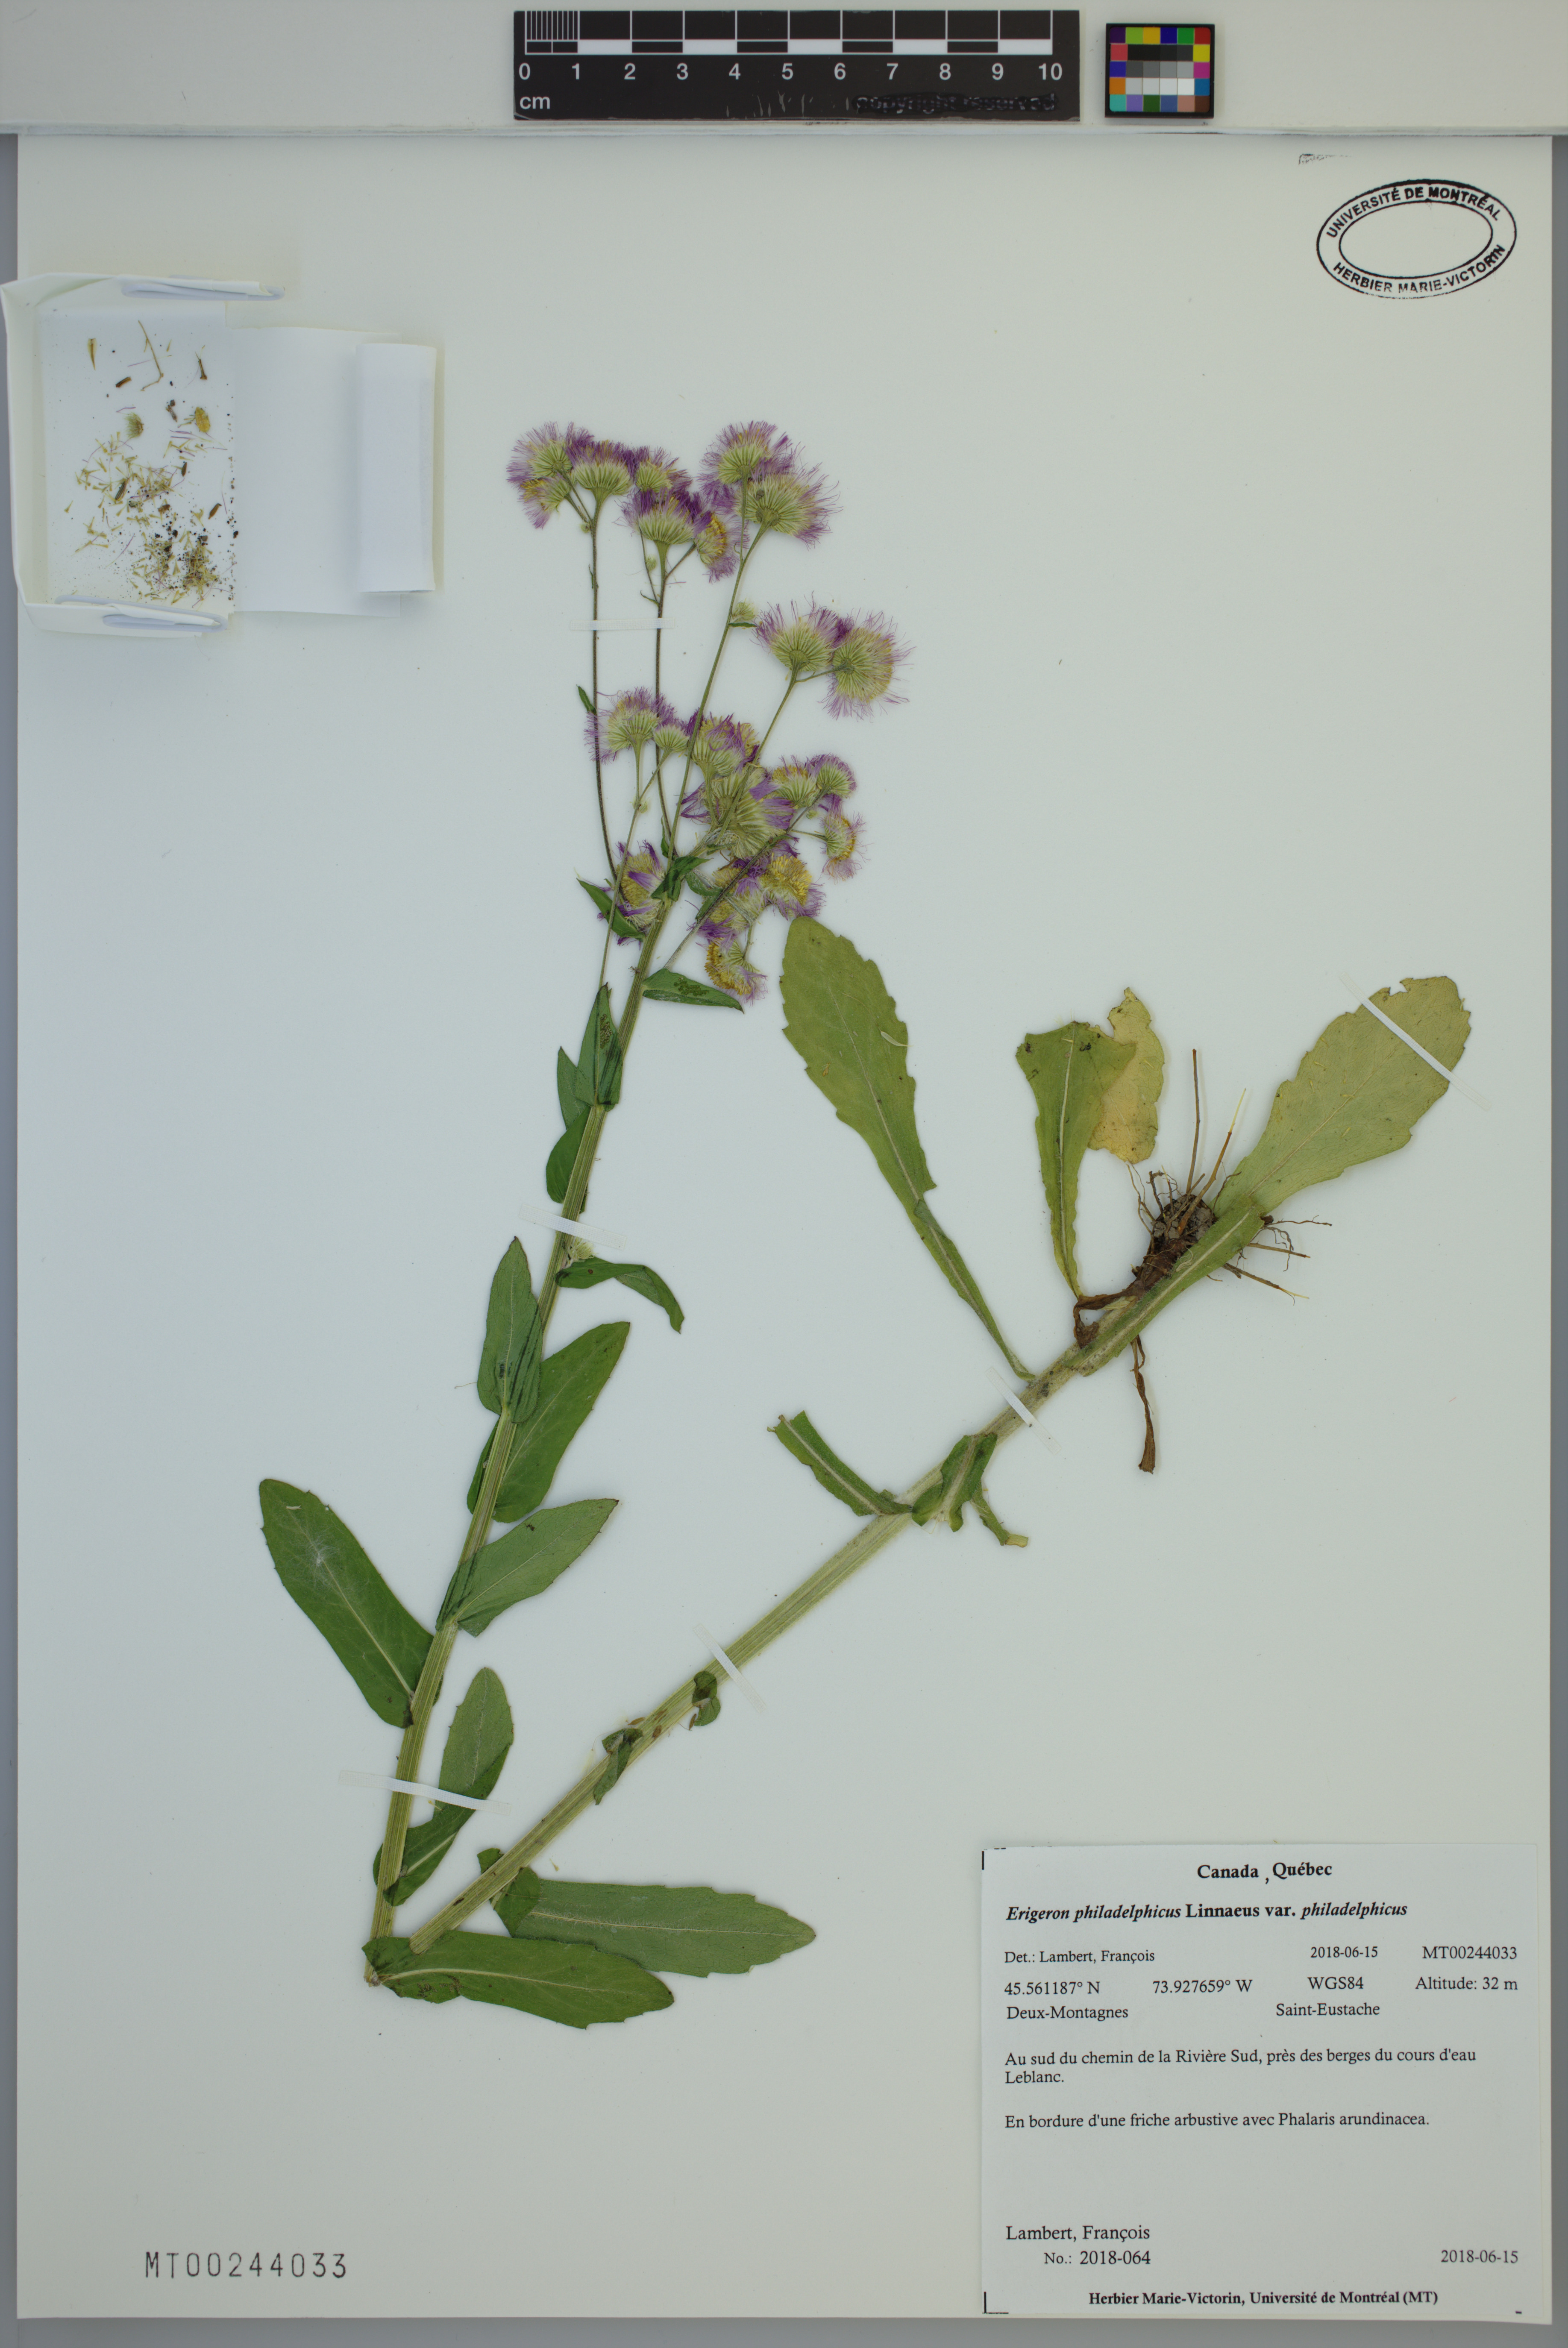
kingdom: Plantae
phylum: Tracheophyta
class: Magnoliopsida
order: Asterales
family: Asteraceae
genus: Erigeron
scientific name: Erigeron philadelphicus
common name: Robin's-plantain
